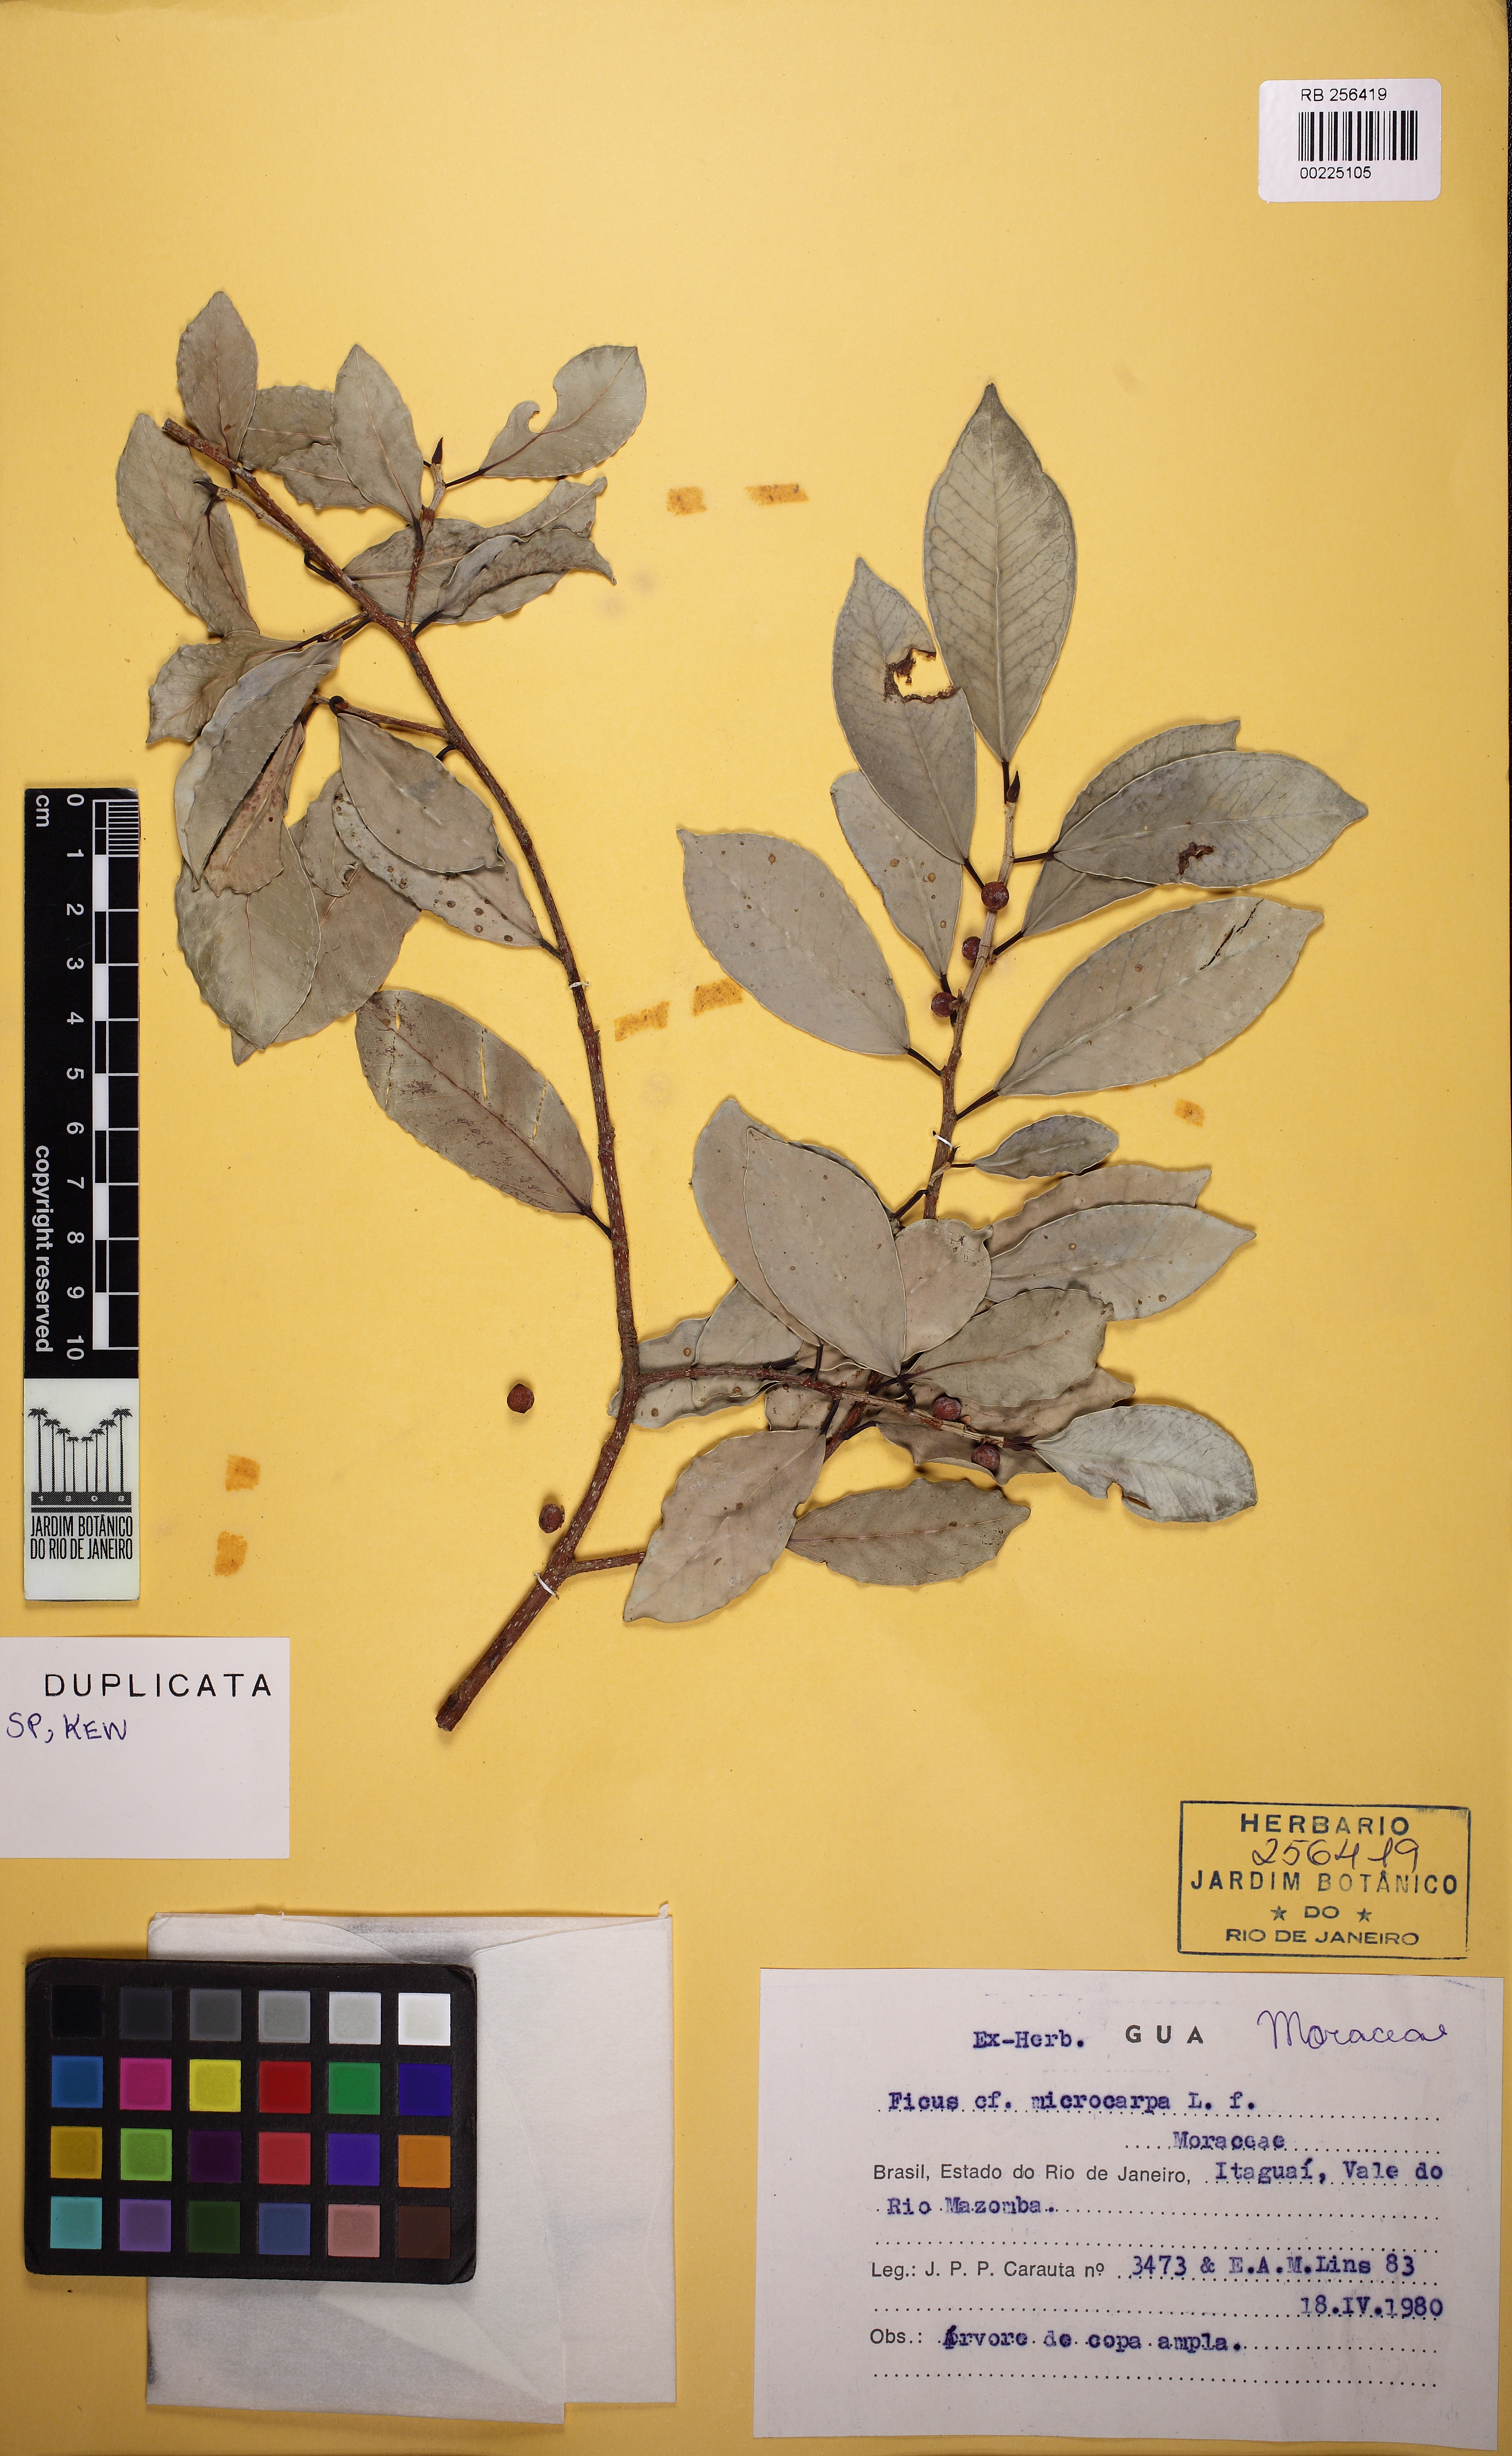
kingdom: Plantae
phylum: Tracheophyta
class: Magnoliopsida
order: Rosales
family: Moraceae
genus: Ficus
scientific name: Ficus microcarpa
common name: Chinese banyan
